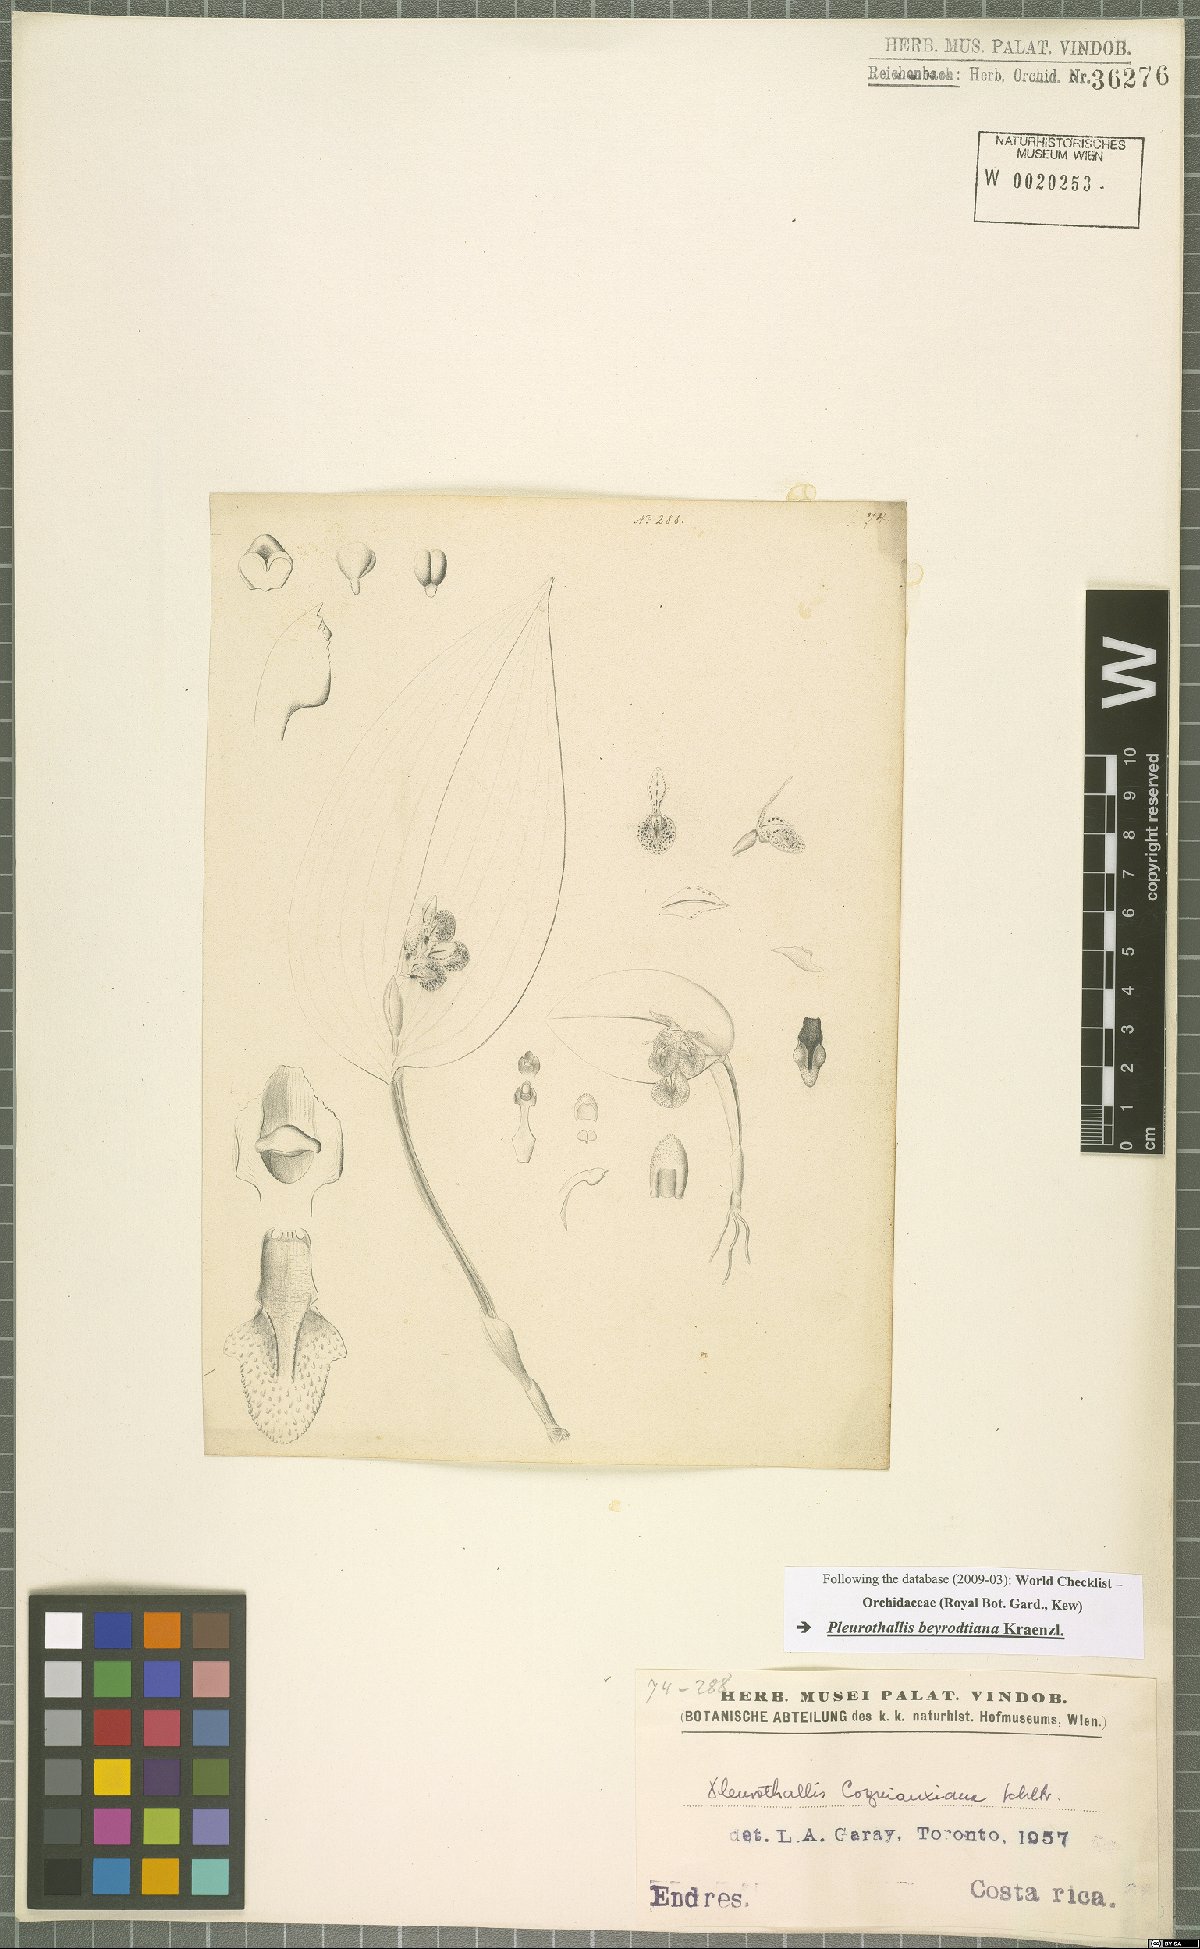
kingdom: Plantae
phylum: Tracheophyta
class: Liliopsida
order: Asparagales
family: Orchidaceae
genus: Acianthera
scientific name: Acianthera beyrodtiana
